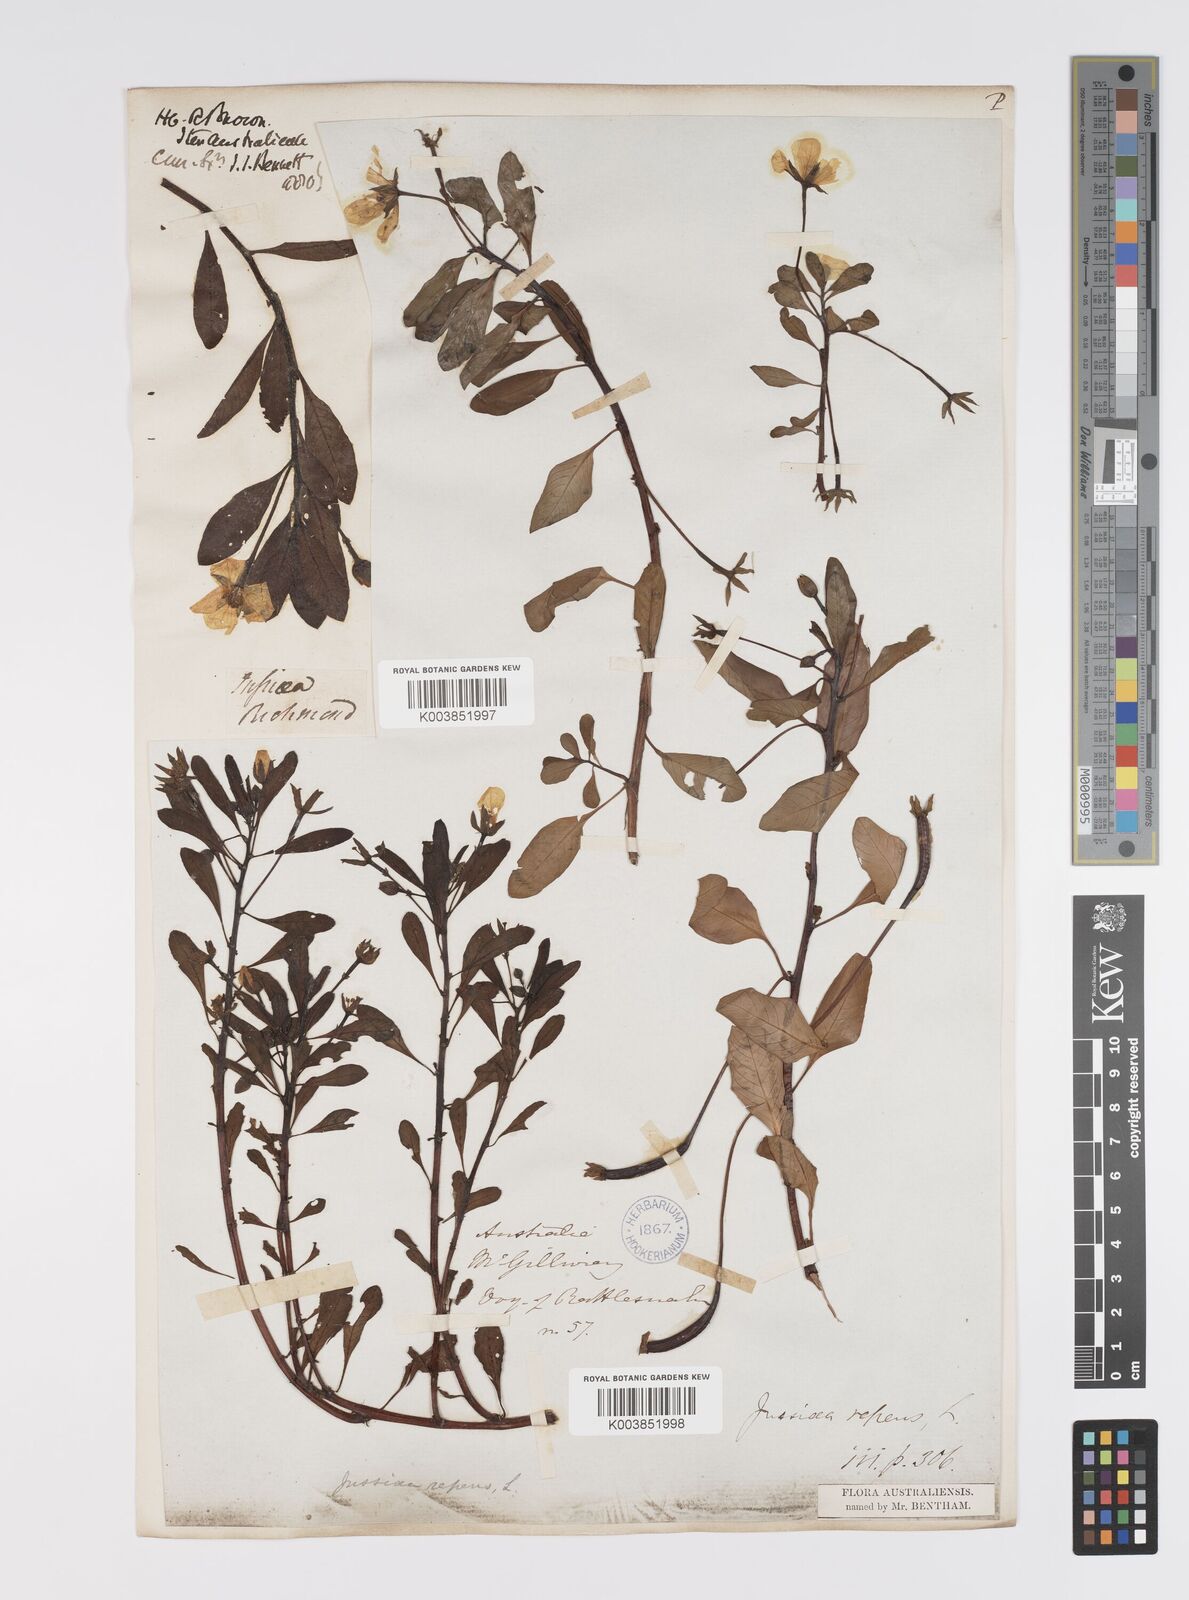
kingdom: Plantae
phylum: Tracheophyta
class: Magnoliopsida
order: Myrtales
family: Onagraceae
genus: Ludwigia
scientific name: Ludwigia peploides
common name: Floating primrose-willow
